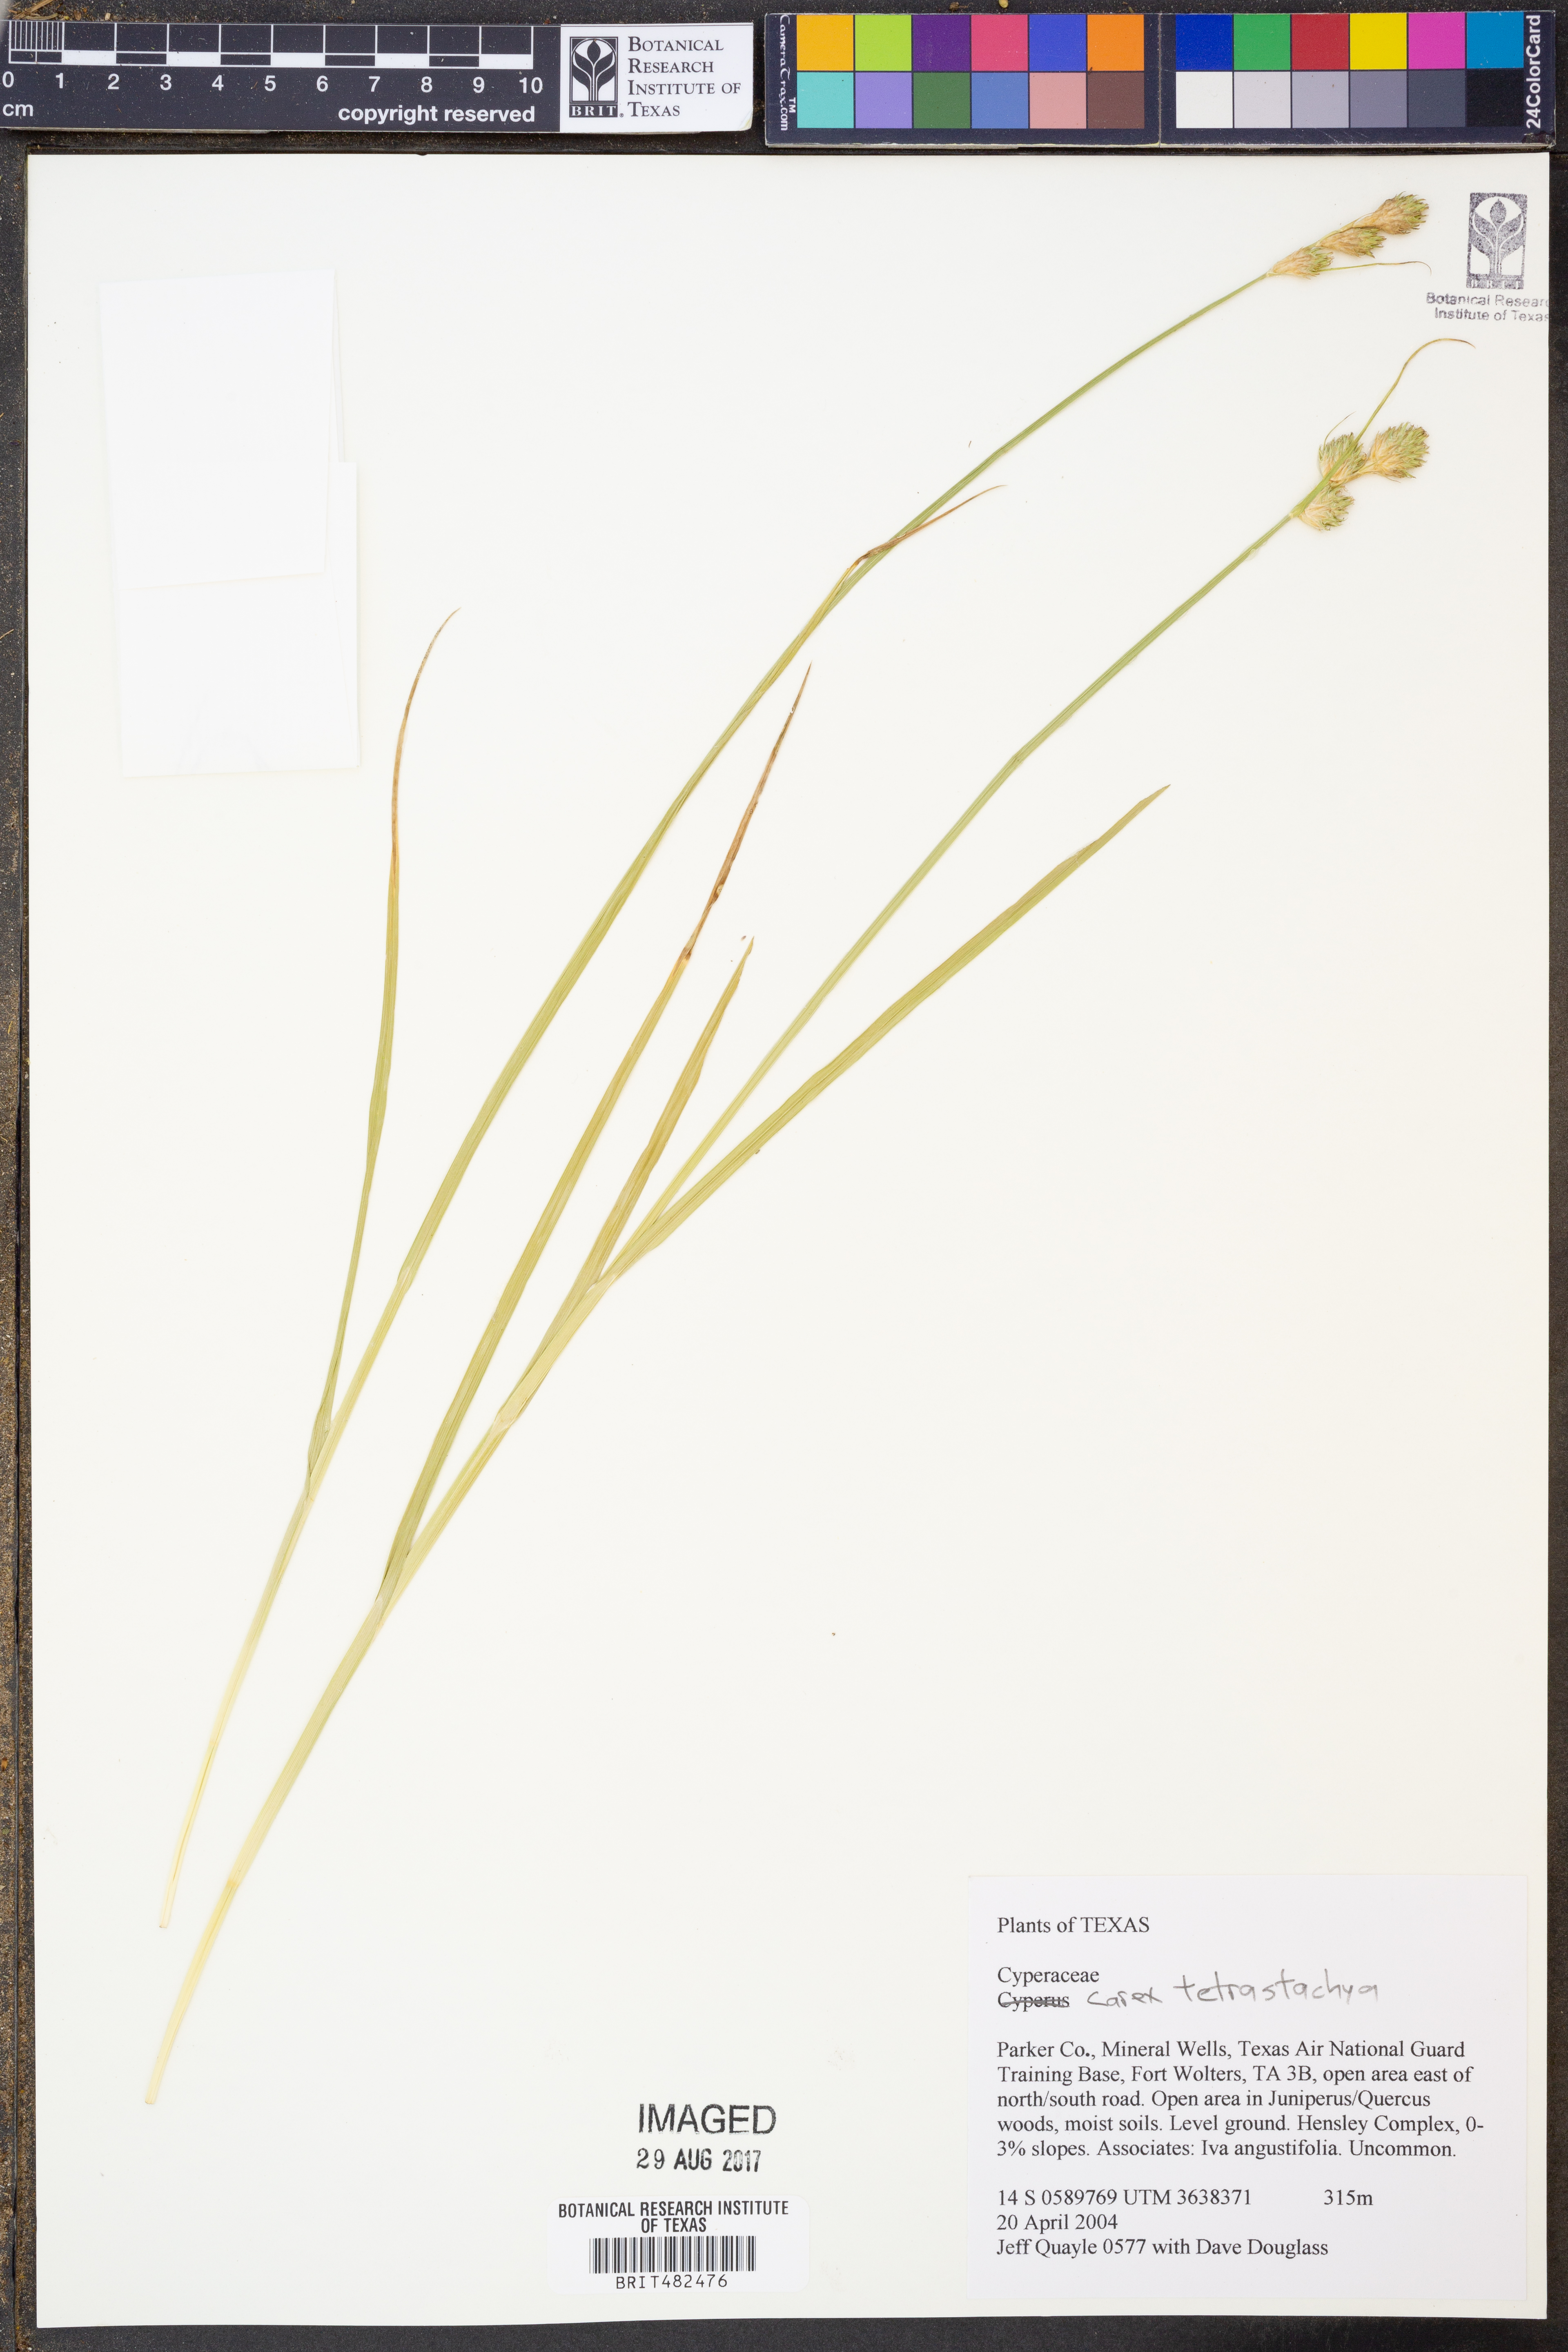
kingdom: Plantae
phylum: Tracheophyta
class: Liliopsida
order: Poales
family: Cyperaceae
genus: Carex
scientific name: Carex tetrastachya
